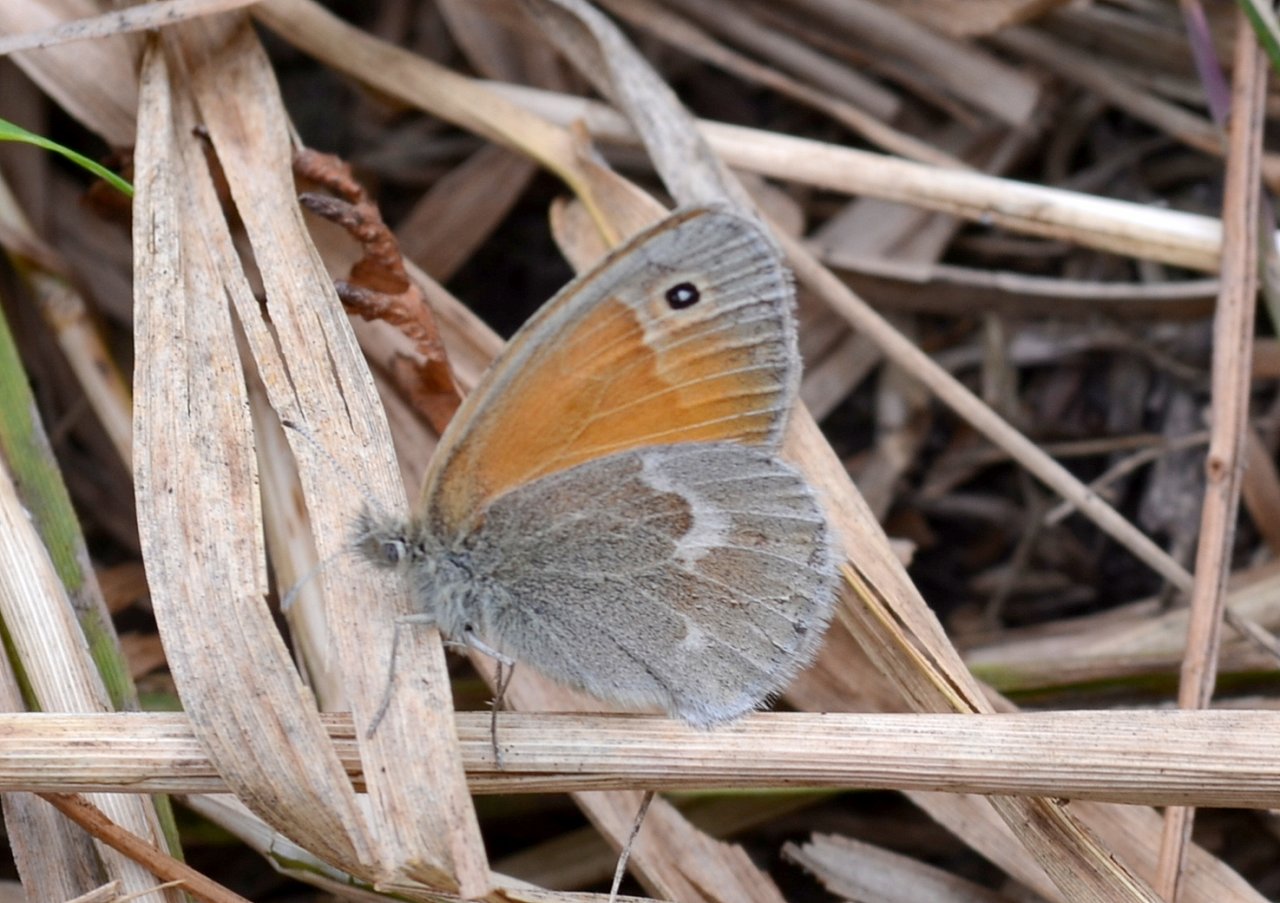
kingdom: Animalia
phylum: Arthropoda
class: Insecta
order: Lepidoptera
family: Nymphalidae
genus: Coenonympha
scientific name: Coenonympha tullia
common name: Large Heath
